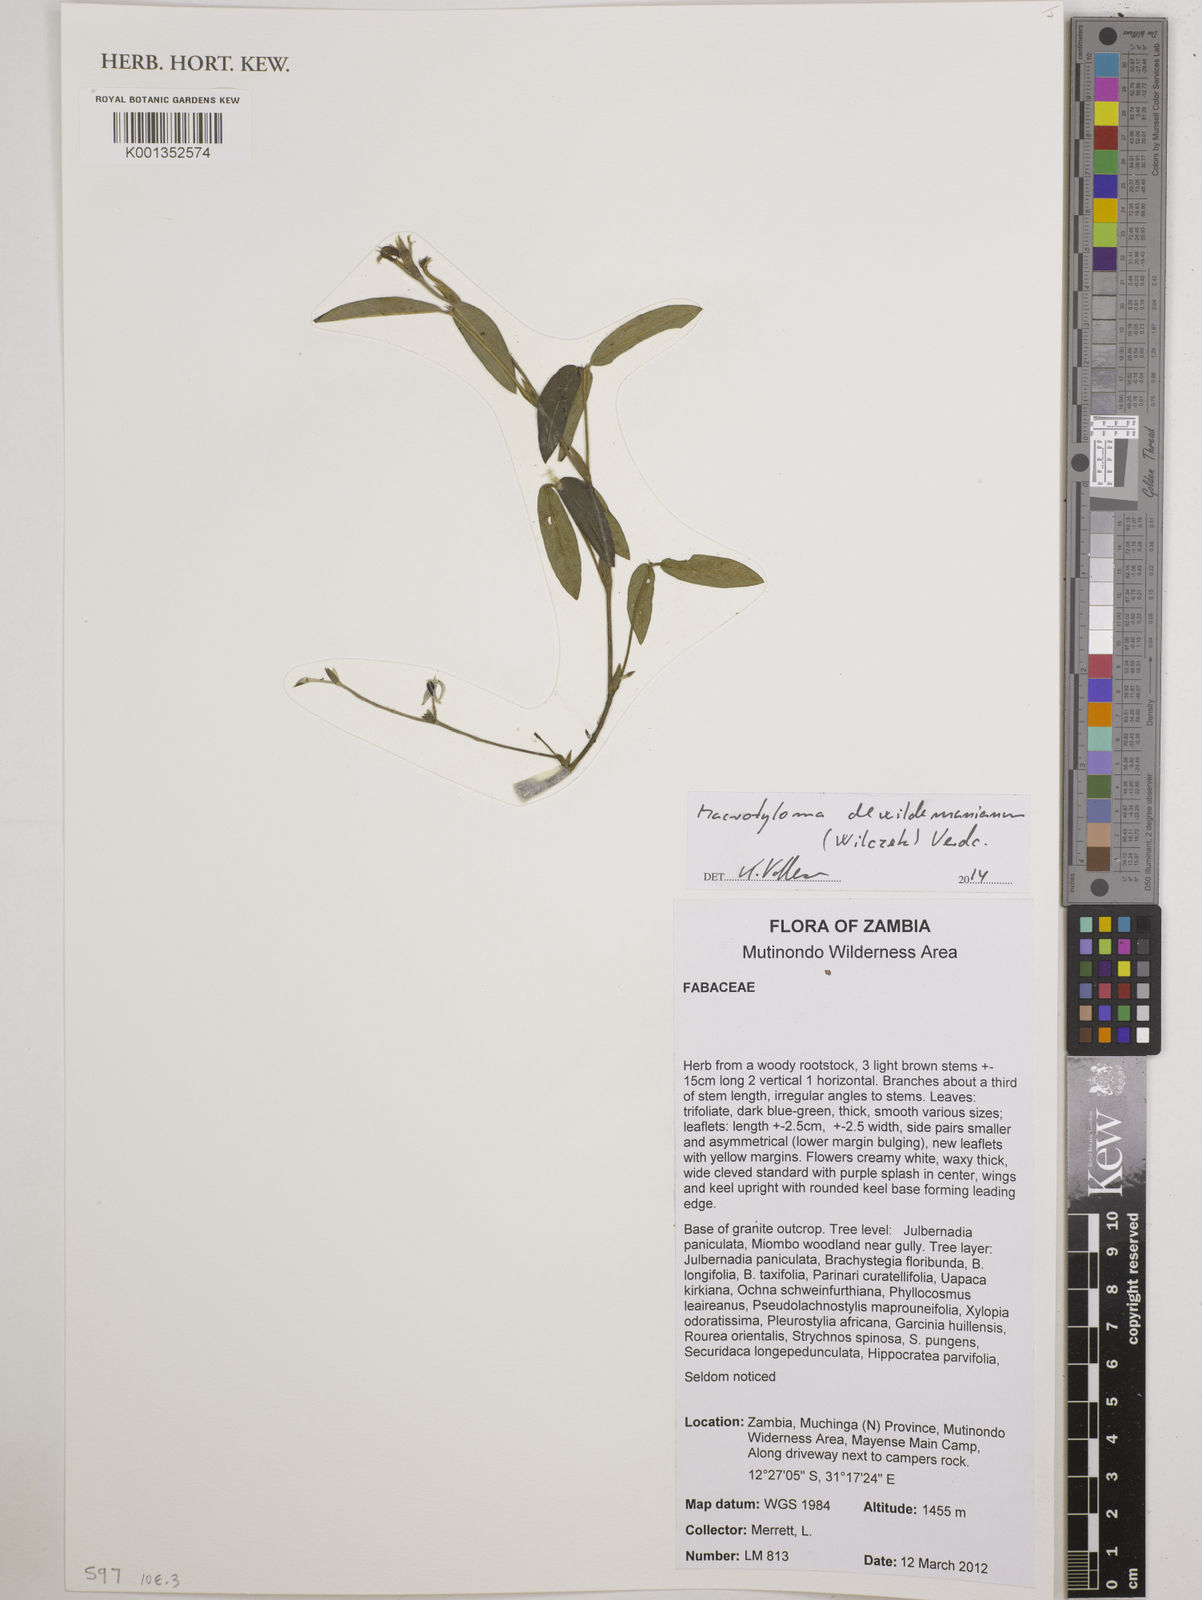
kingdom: Plantae
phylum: Tracheophyta
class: Magnoliopsida
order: Fabales
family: Fabaceae
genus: Macrotyloma
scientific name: Macrotyloma dewildemanianum
